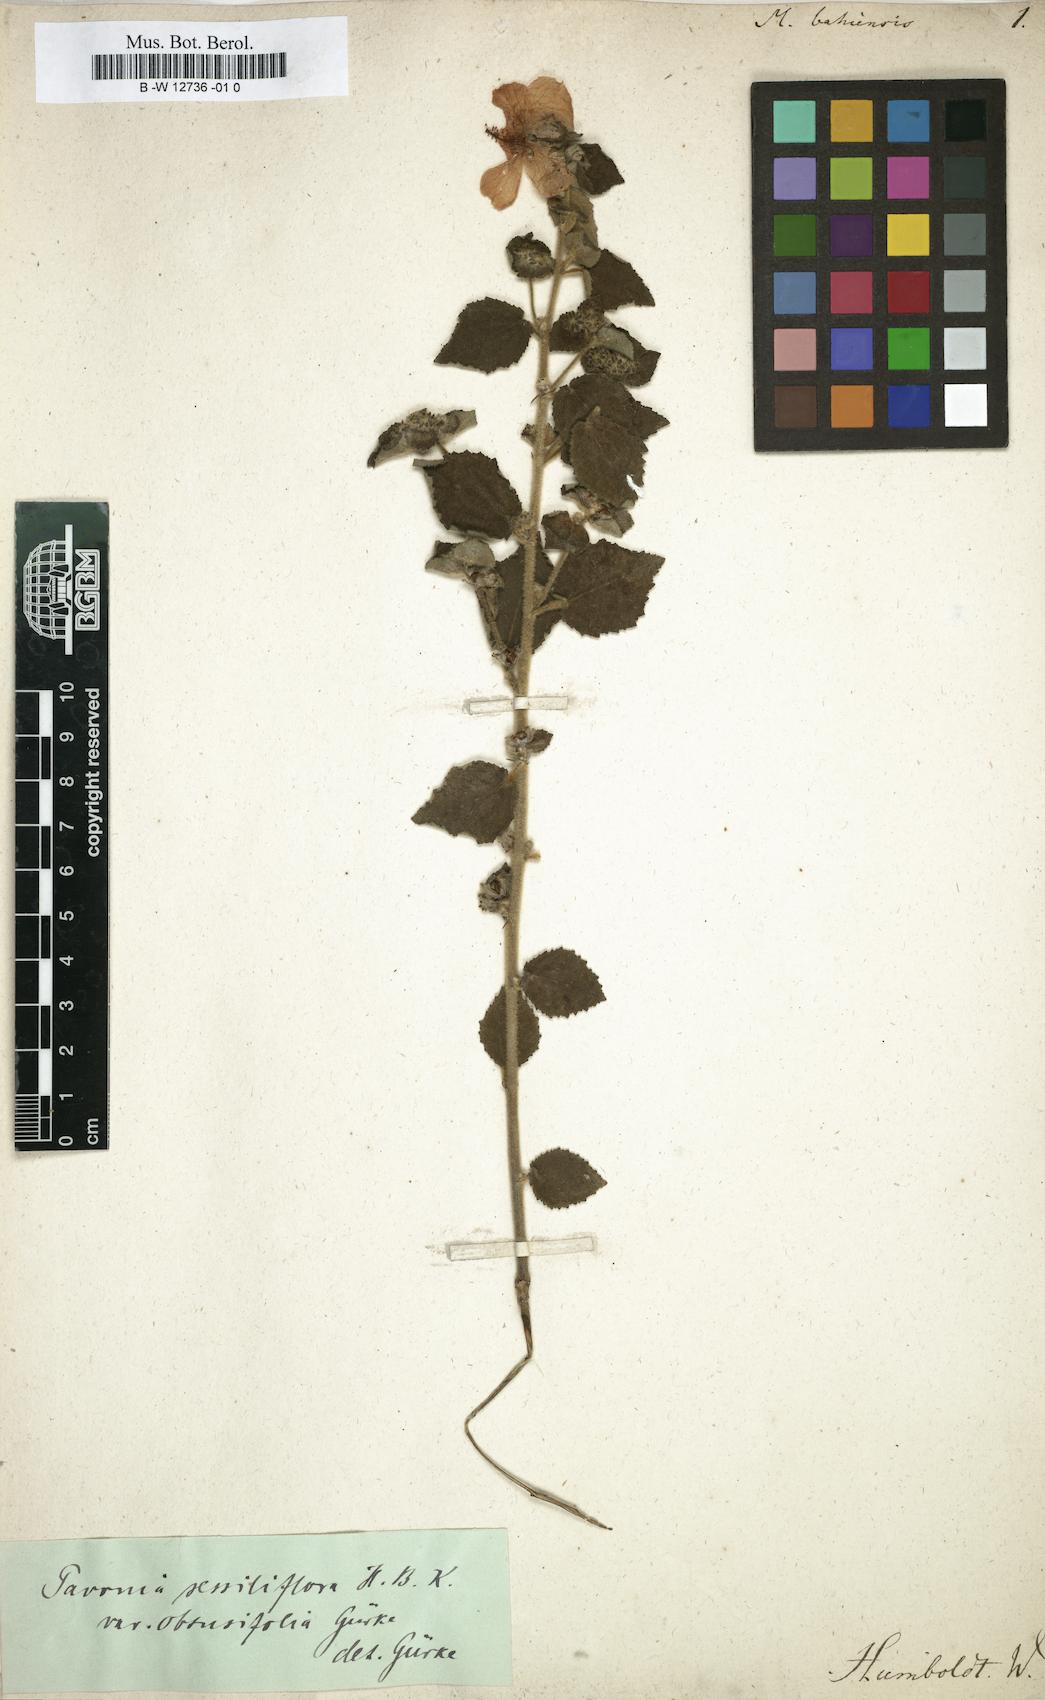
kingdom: Plantae
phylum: Tracheophyta
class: Magnoliopsida
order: Malvales
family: Malvaceae
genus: Malachra
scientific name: Malachra
